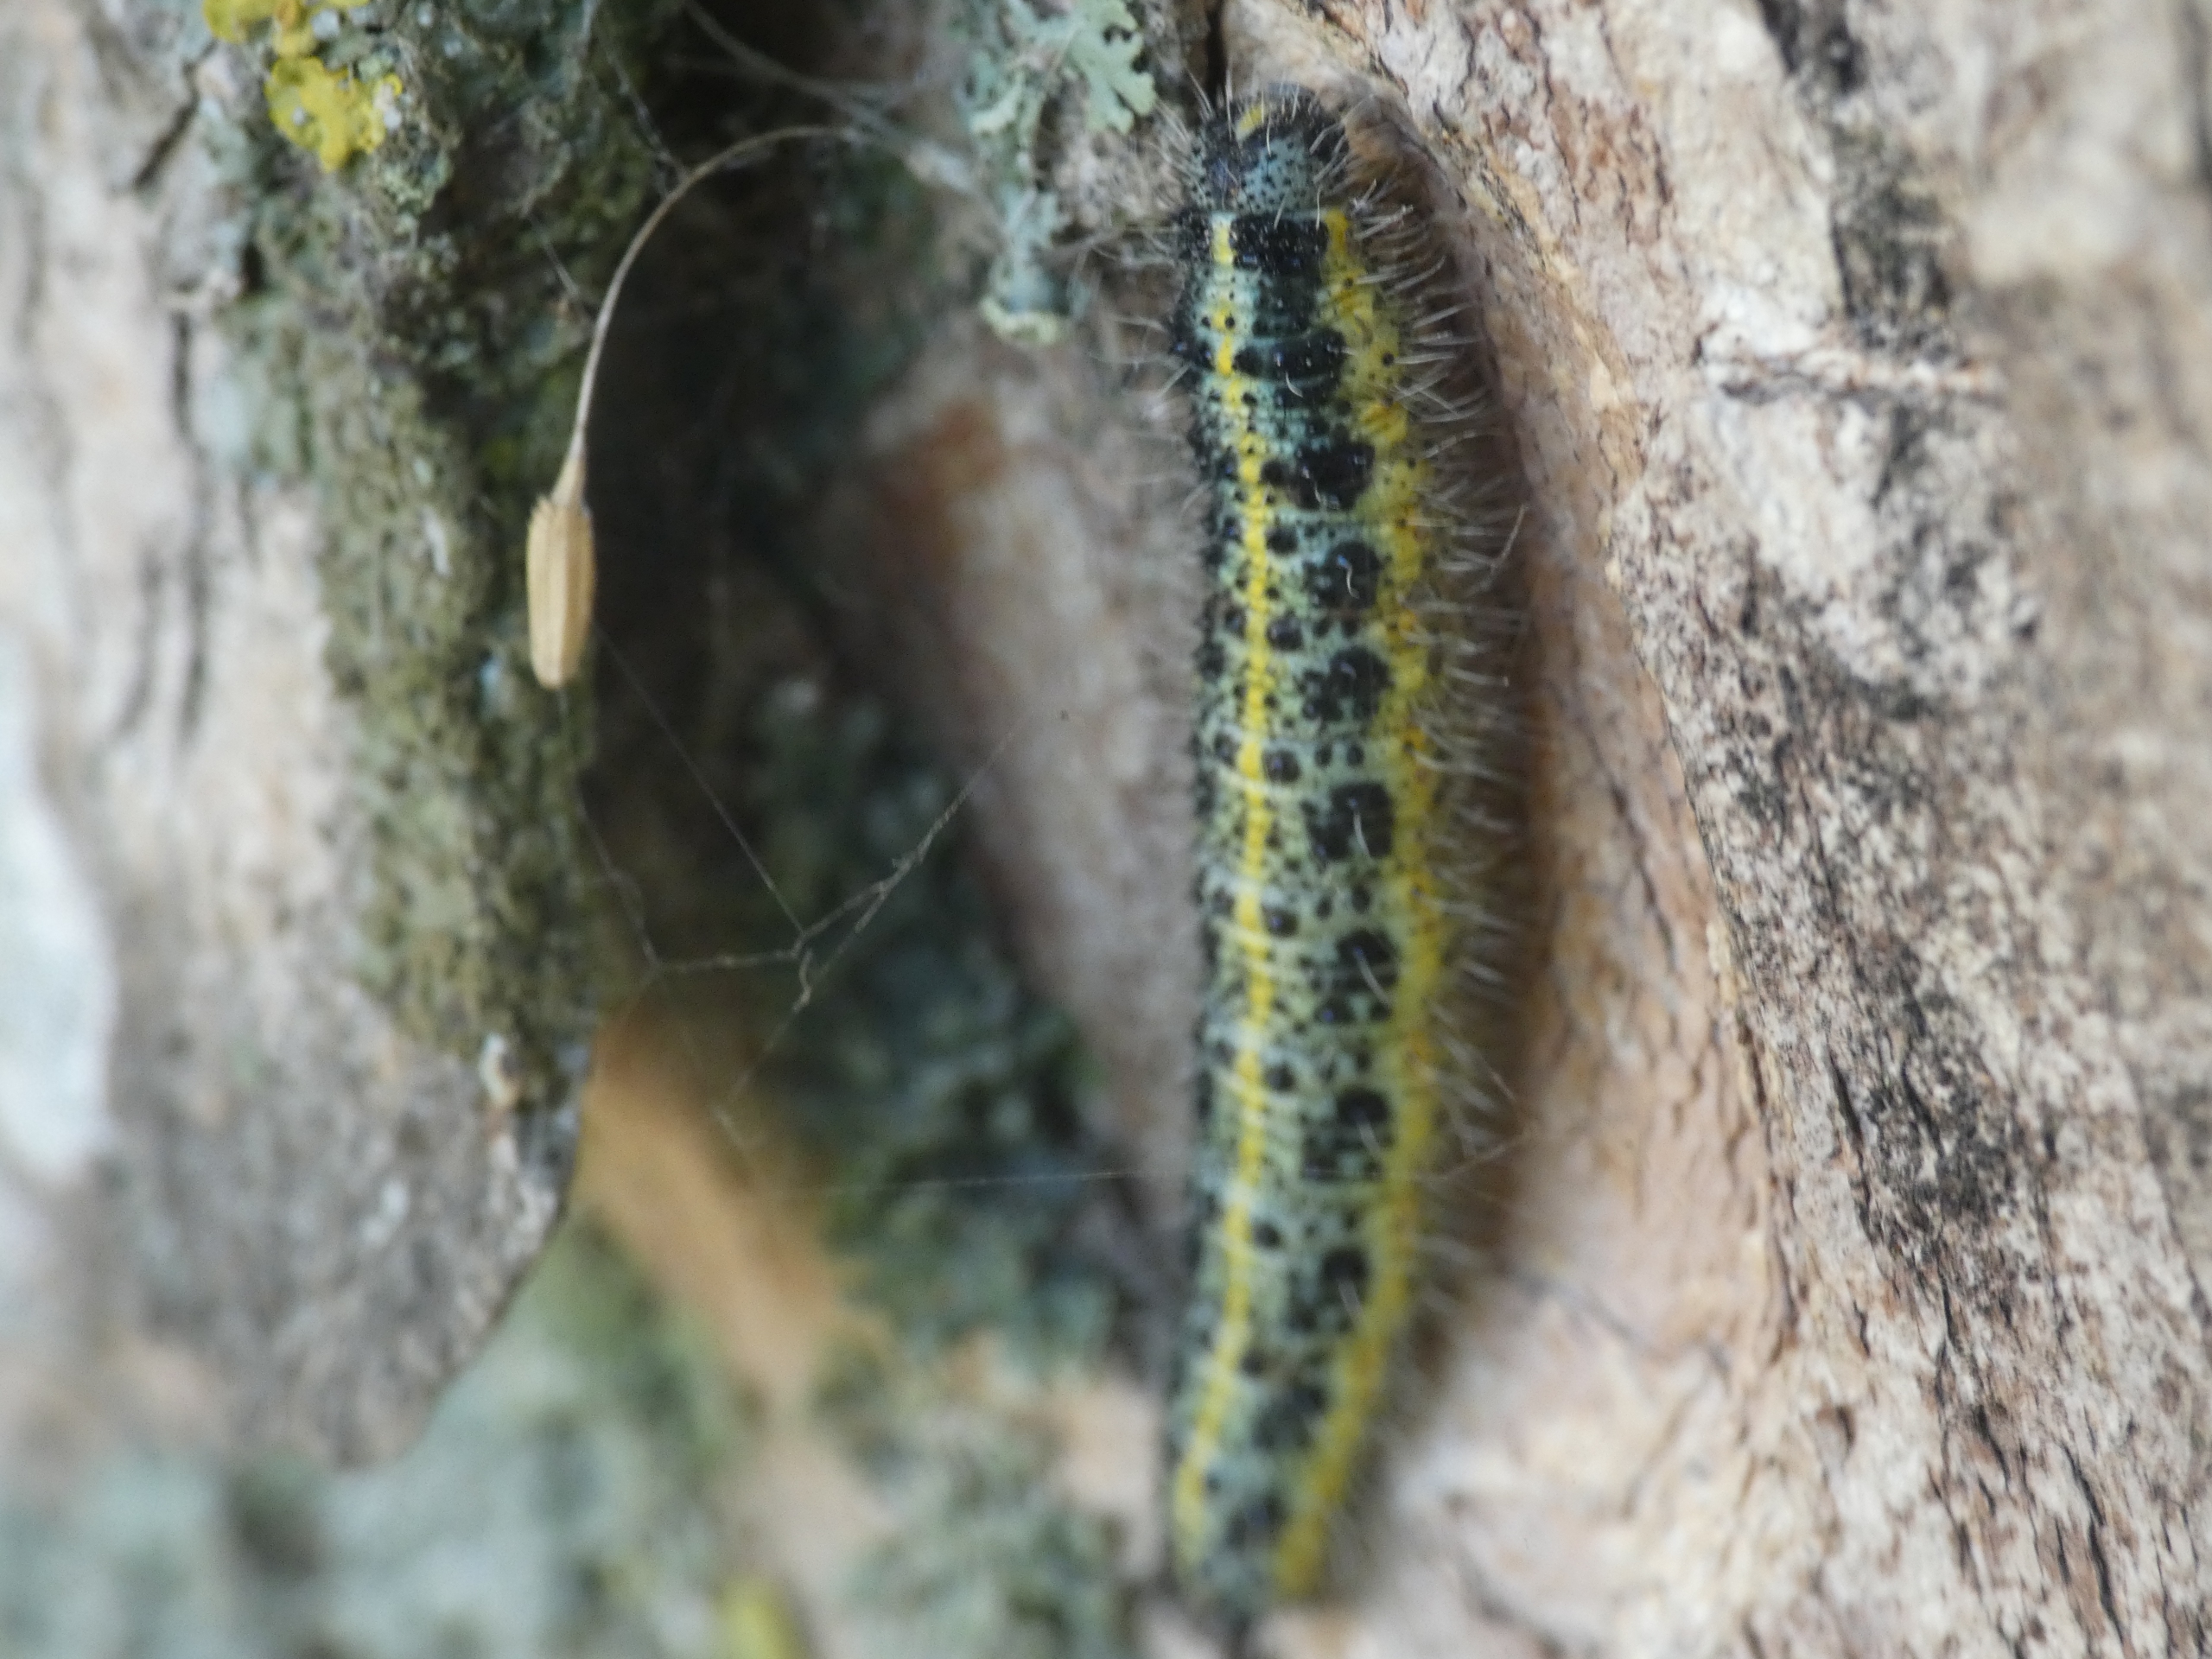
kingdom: Animalia
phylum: Arthropoda
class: Insecta
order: Lepidoptera
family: Pieridae
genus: Pieris
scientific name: Pieris brassicae
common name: Stor kålsommerfugl
